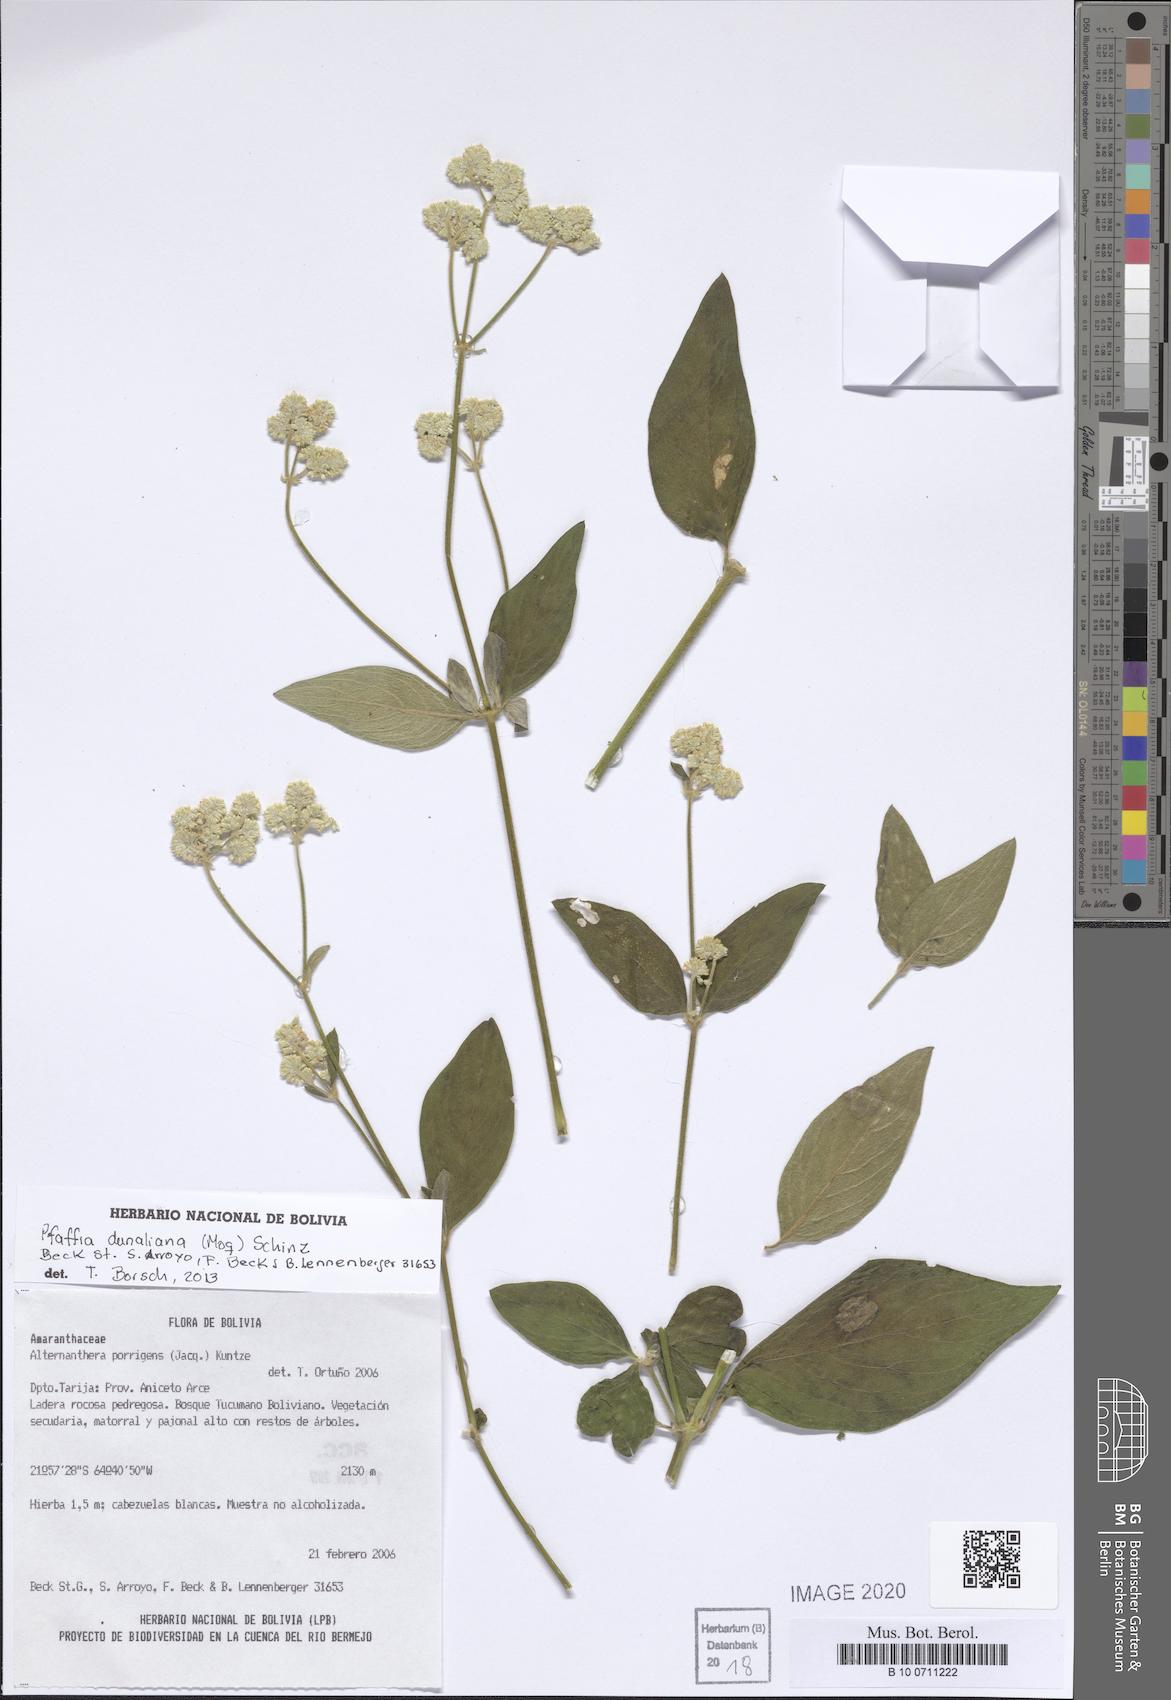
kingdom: Plantae
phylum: Tracheophyta
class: Magnoliopsida
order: Caryophyllales
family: Amaranthaceae
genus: Pfaffia
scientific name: Pfaffia glomerata
